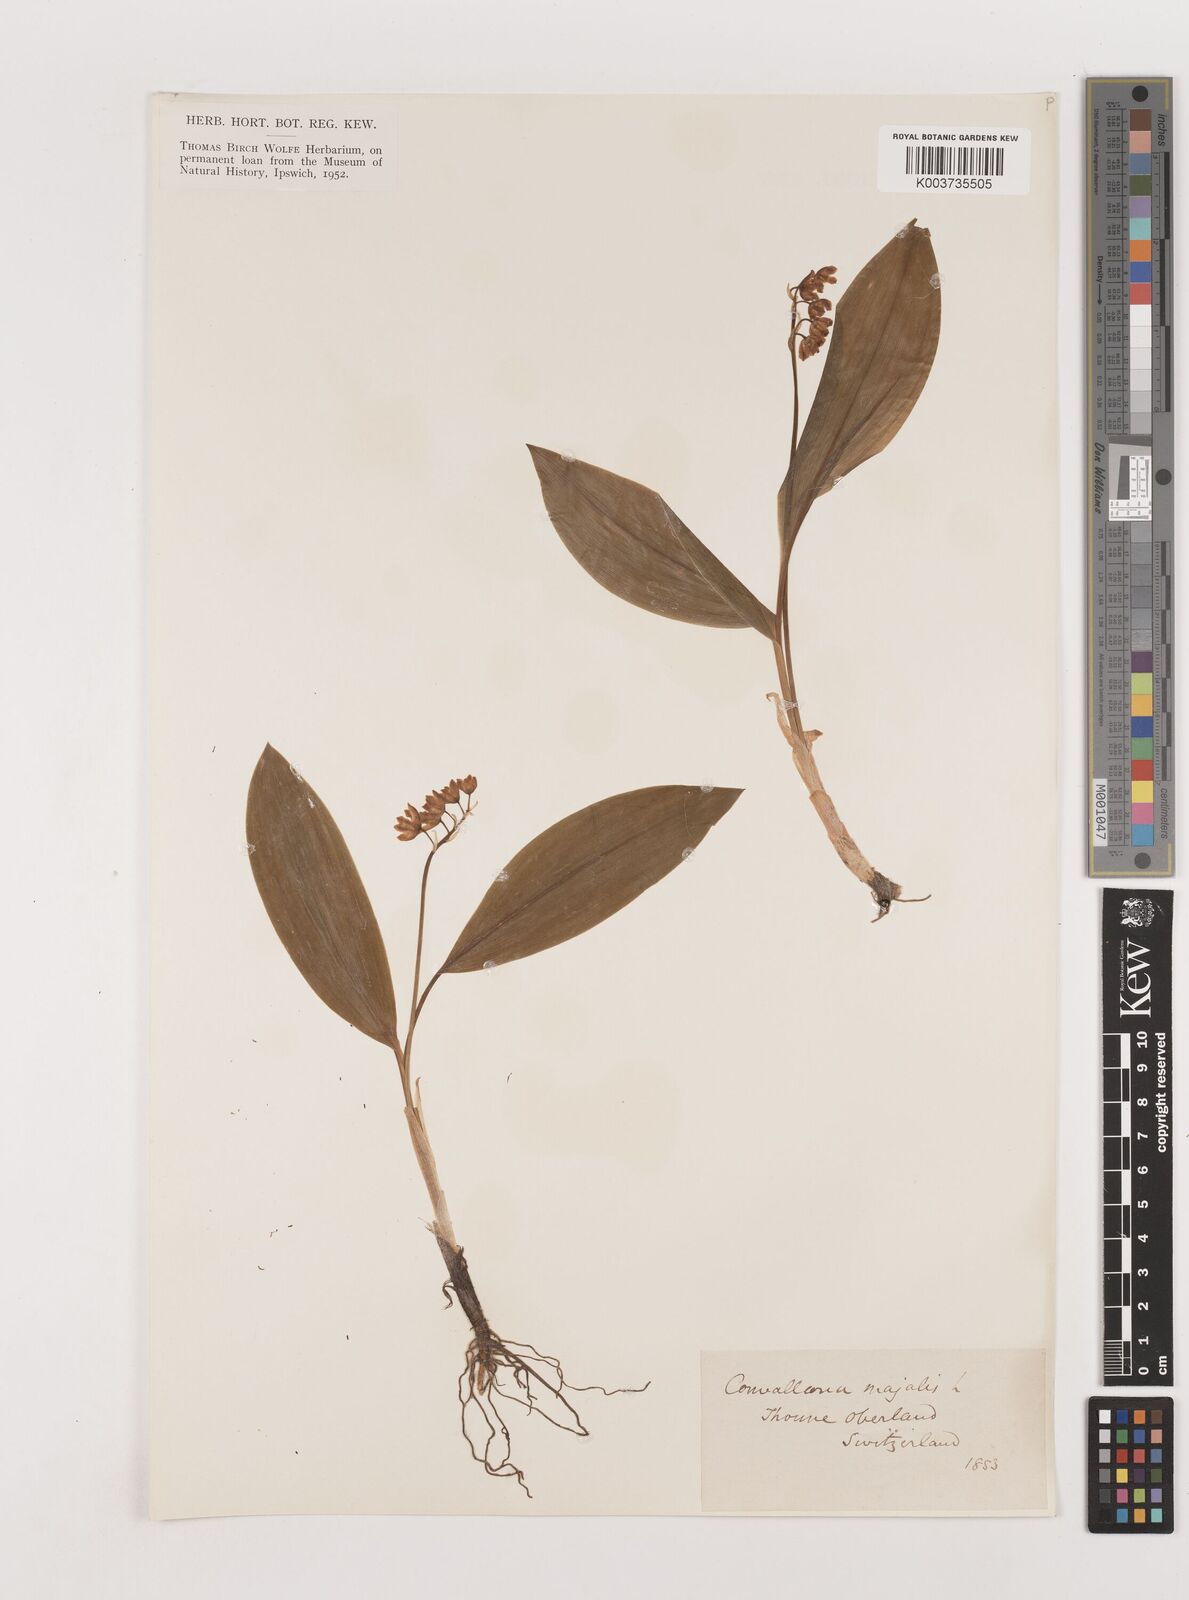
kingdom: Plantae
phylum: Tracheophyta
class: Liliopsida
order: Asparagales
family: Asparagaceae
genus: Convallaria
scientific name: Convallaria majalis
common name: Lily-of-the-valley
